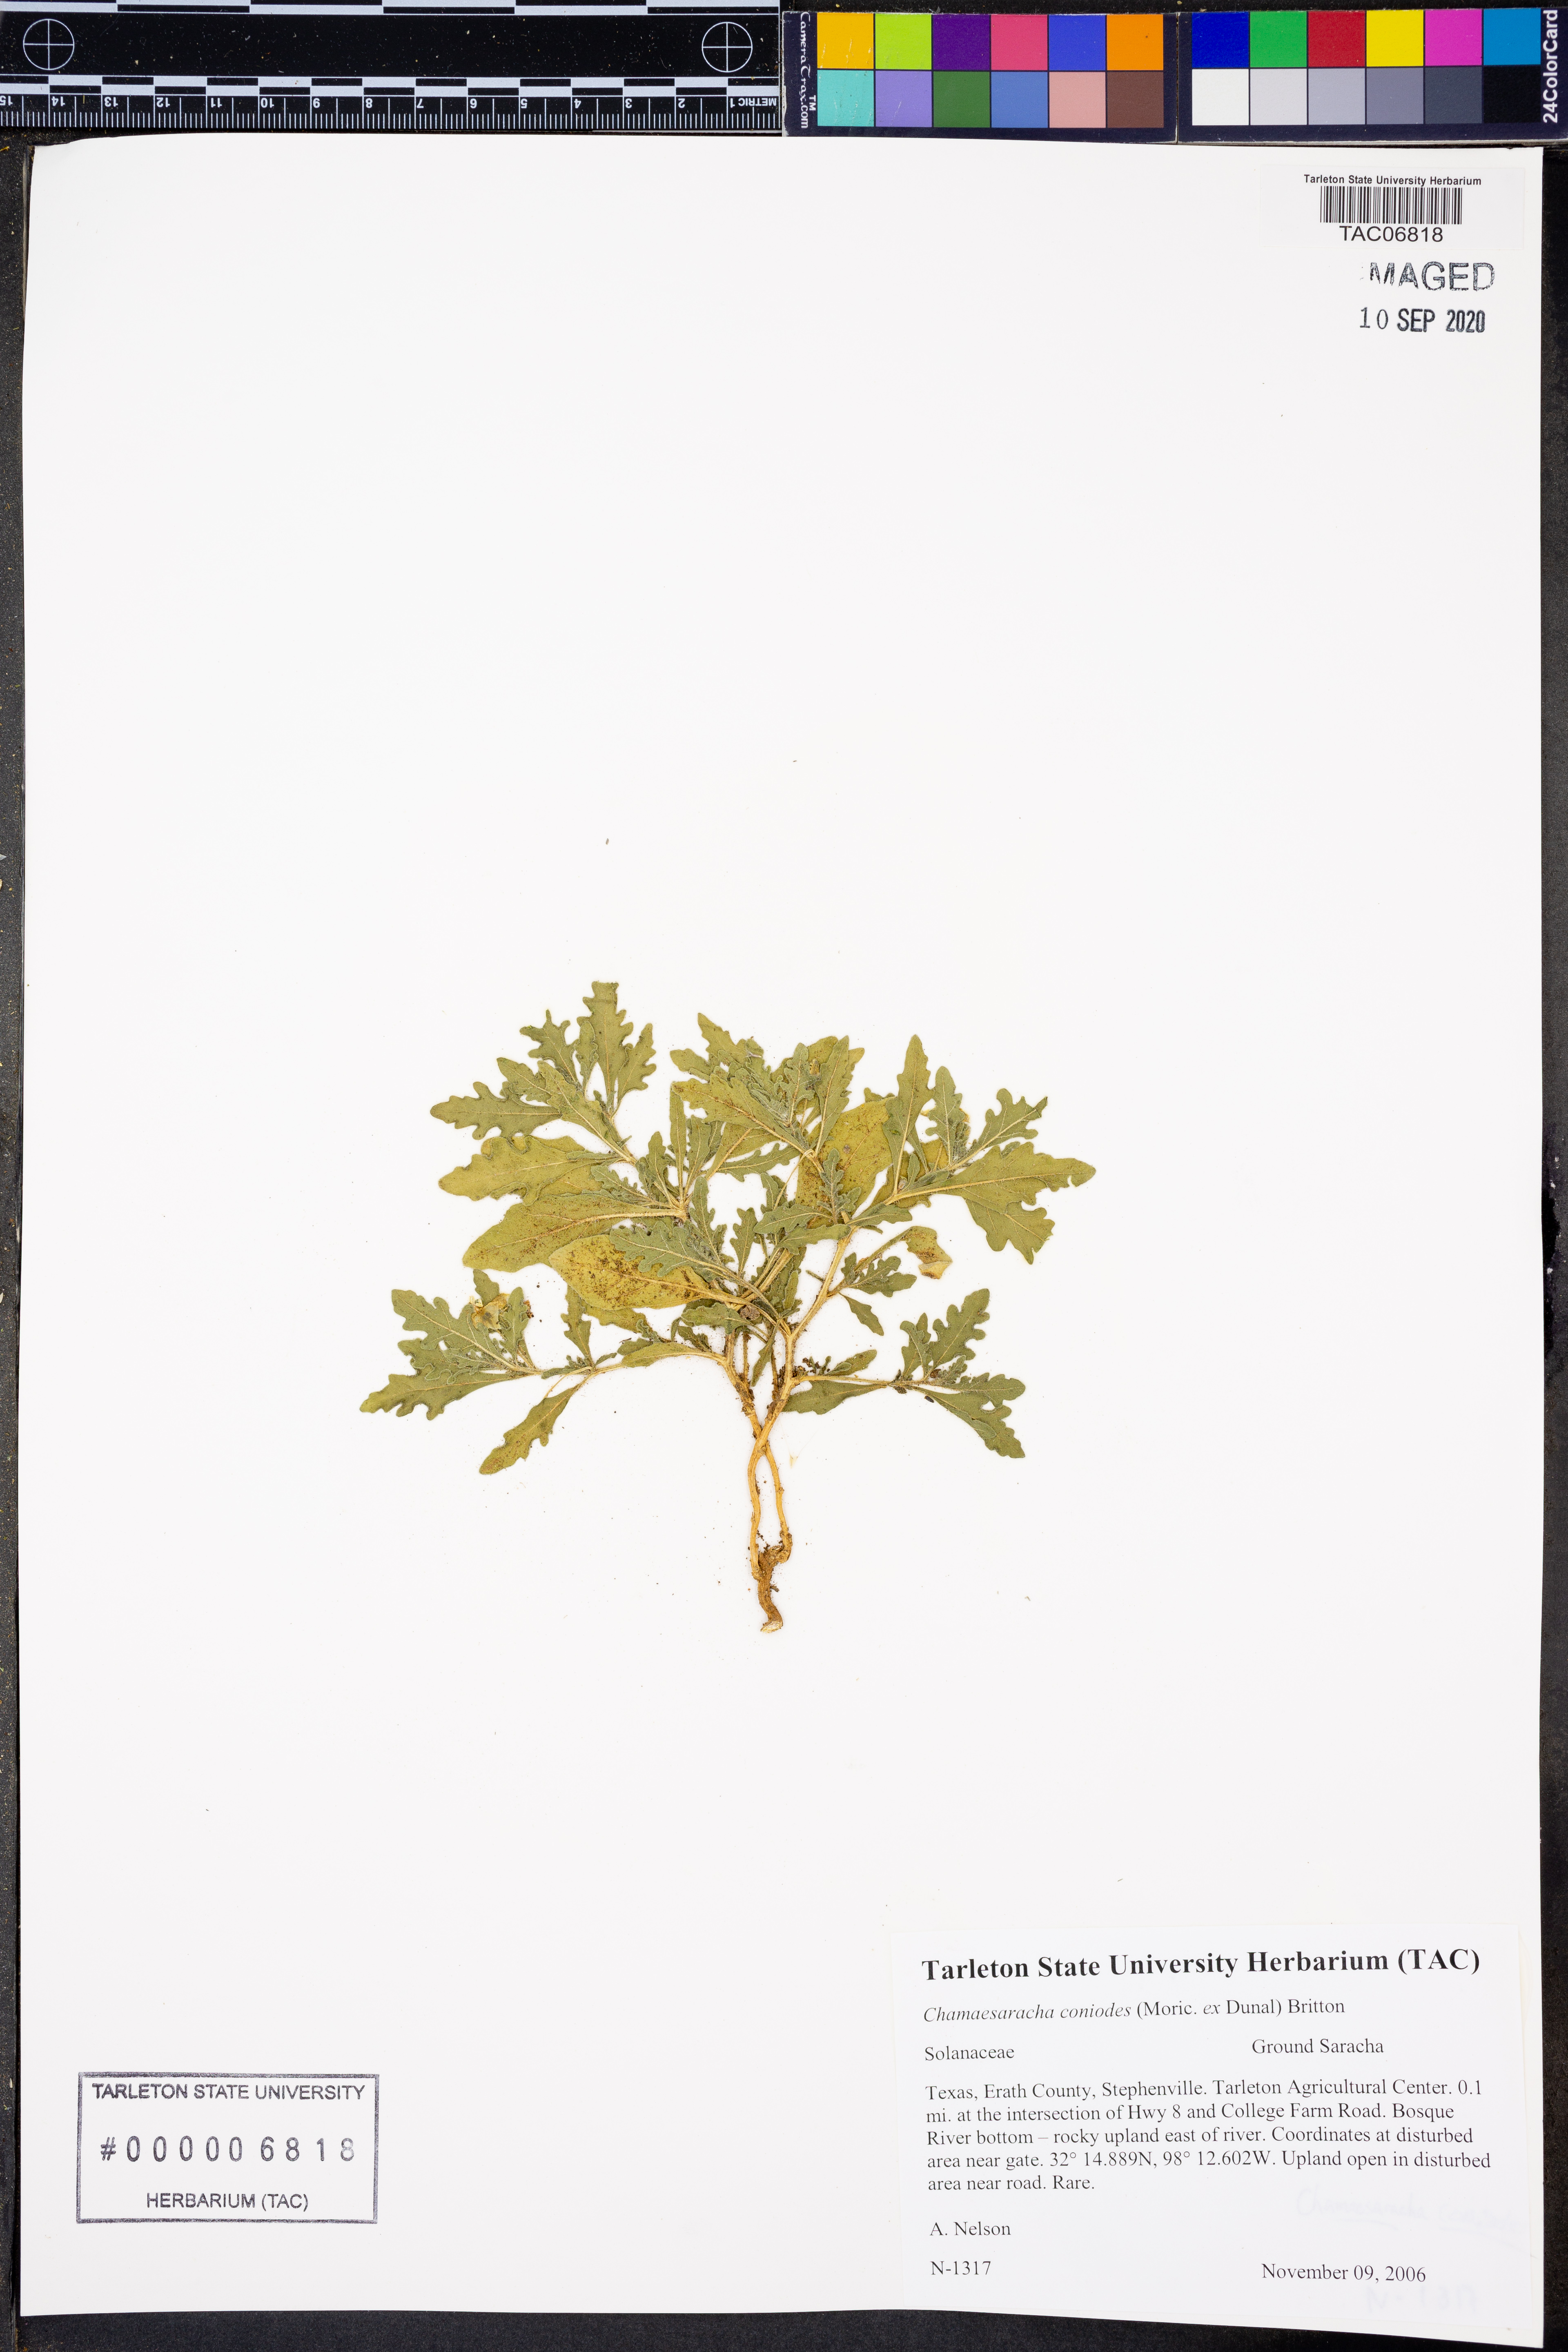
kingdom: Plantae
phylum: Tracheophyta
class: Magnoliopsida
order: Solanales
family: Solanaceae
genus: Chamaesaracha
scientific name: Chamaesaracha coniodes
